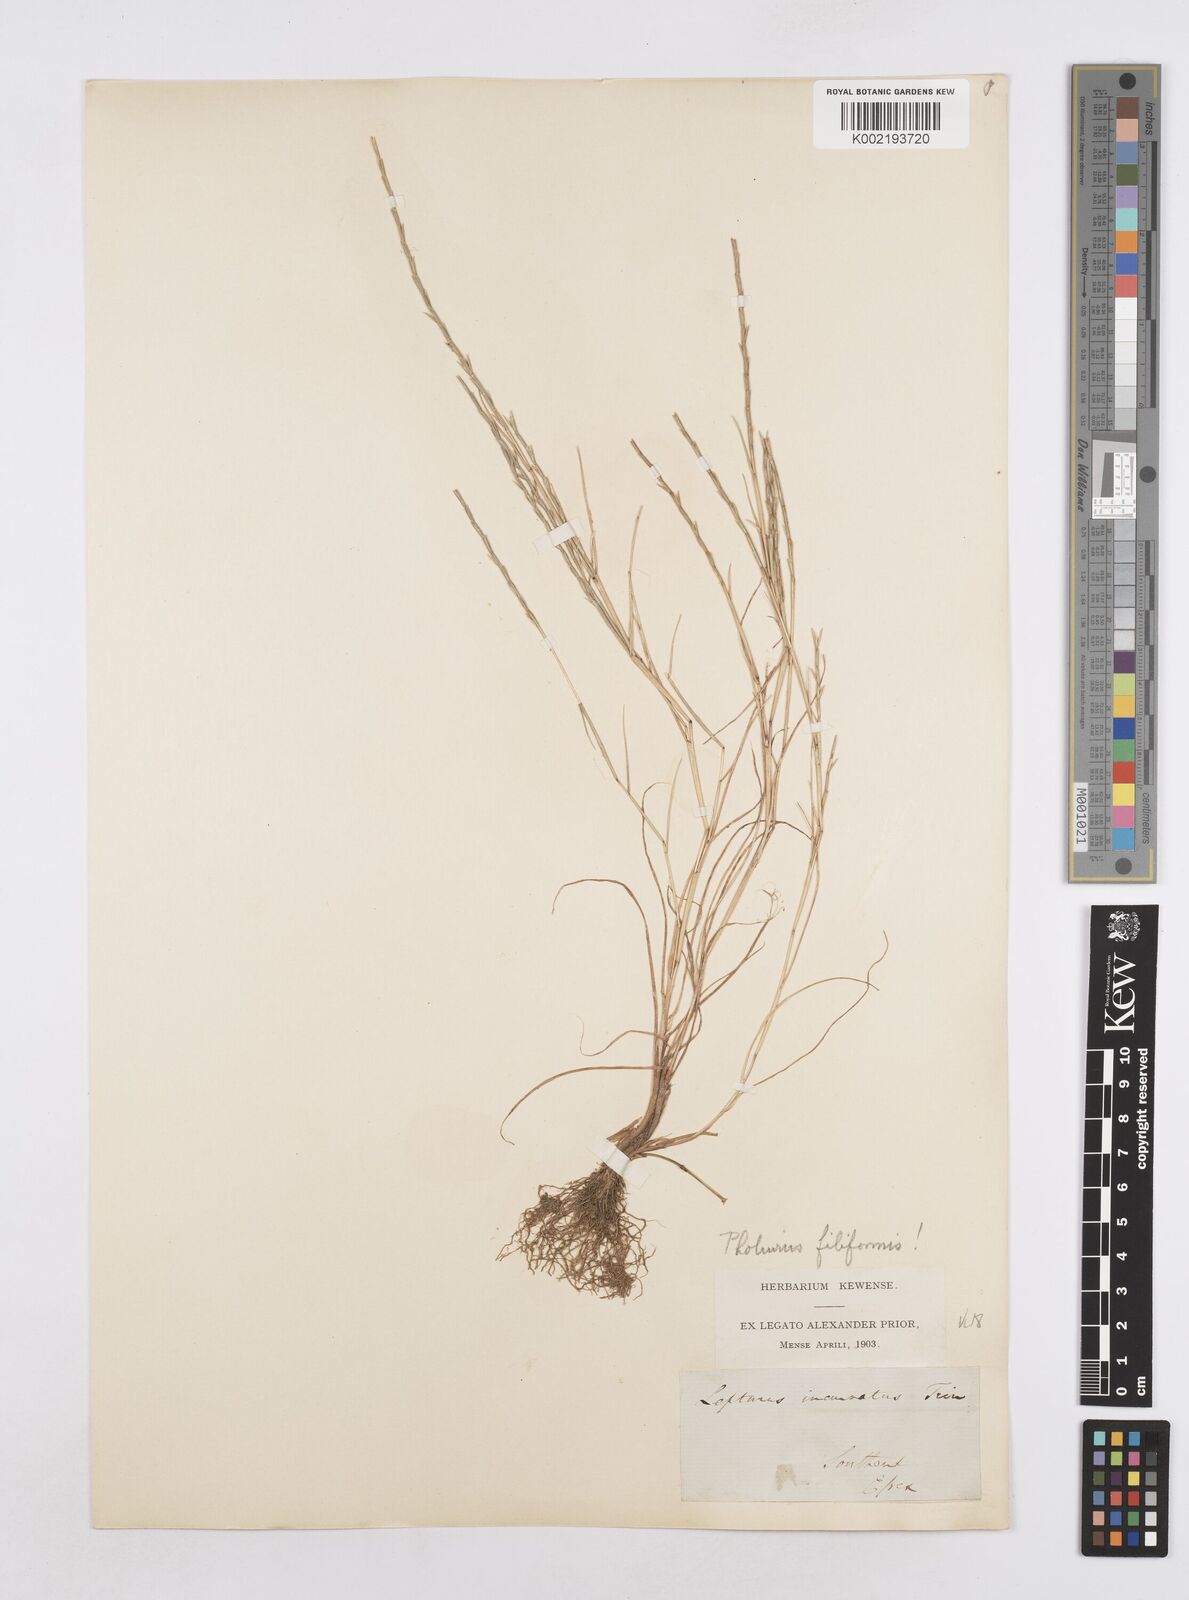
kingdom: Plantae
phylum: Tracheophyta
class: Liliopsida
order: Poales
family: Poaceae
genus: Parapholis
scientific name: Parapholis strigosa
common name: Hard-grass
